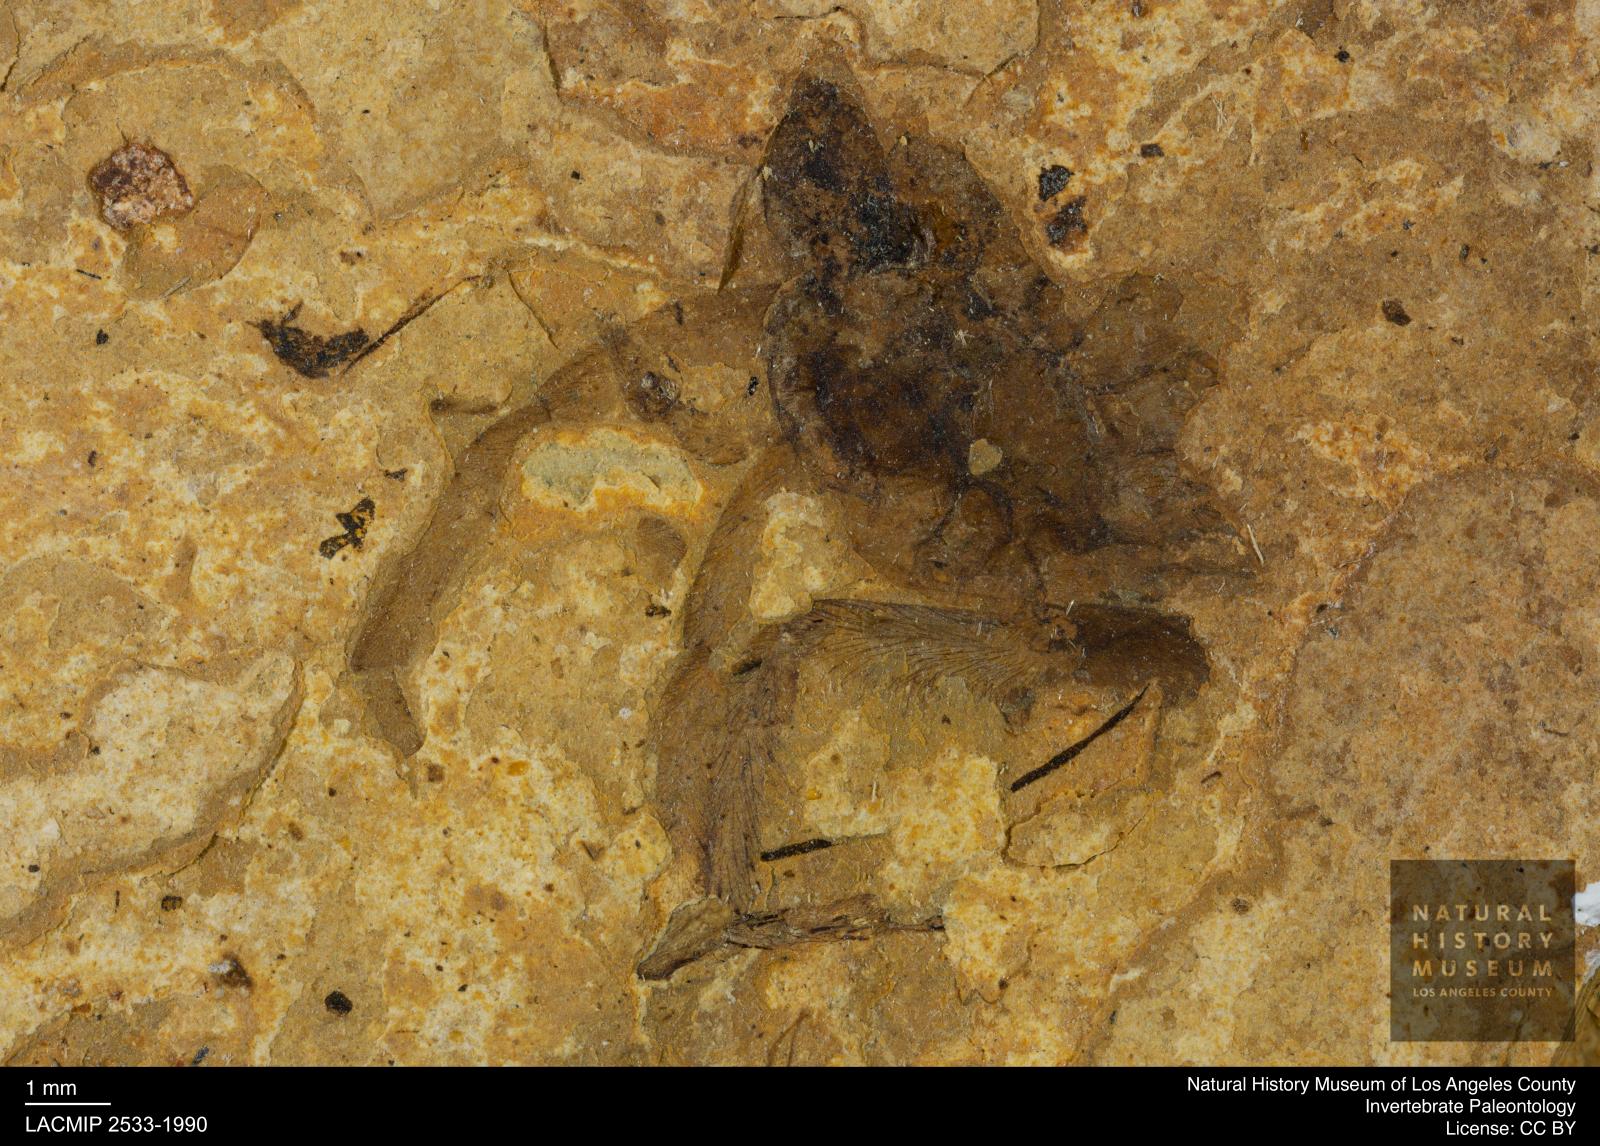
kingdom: Animalia
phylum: Arthropoda
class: Arachnida
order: Araneae
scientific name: Araneae
